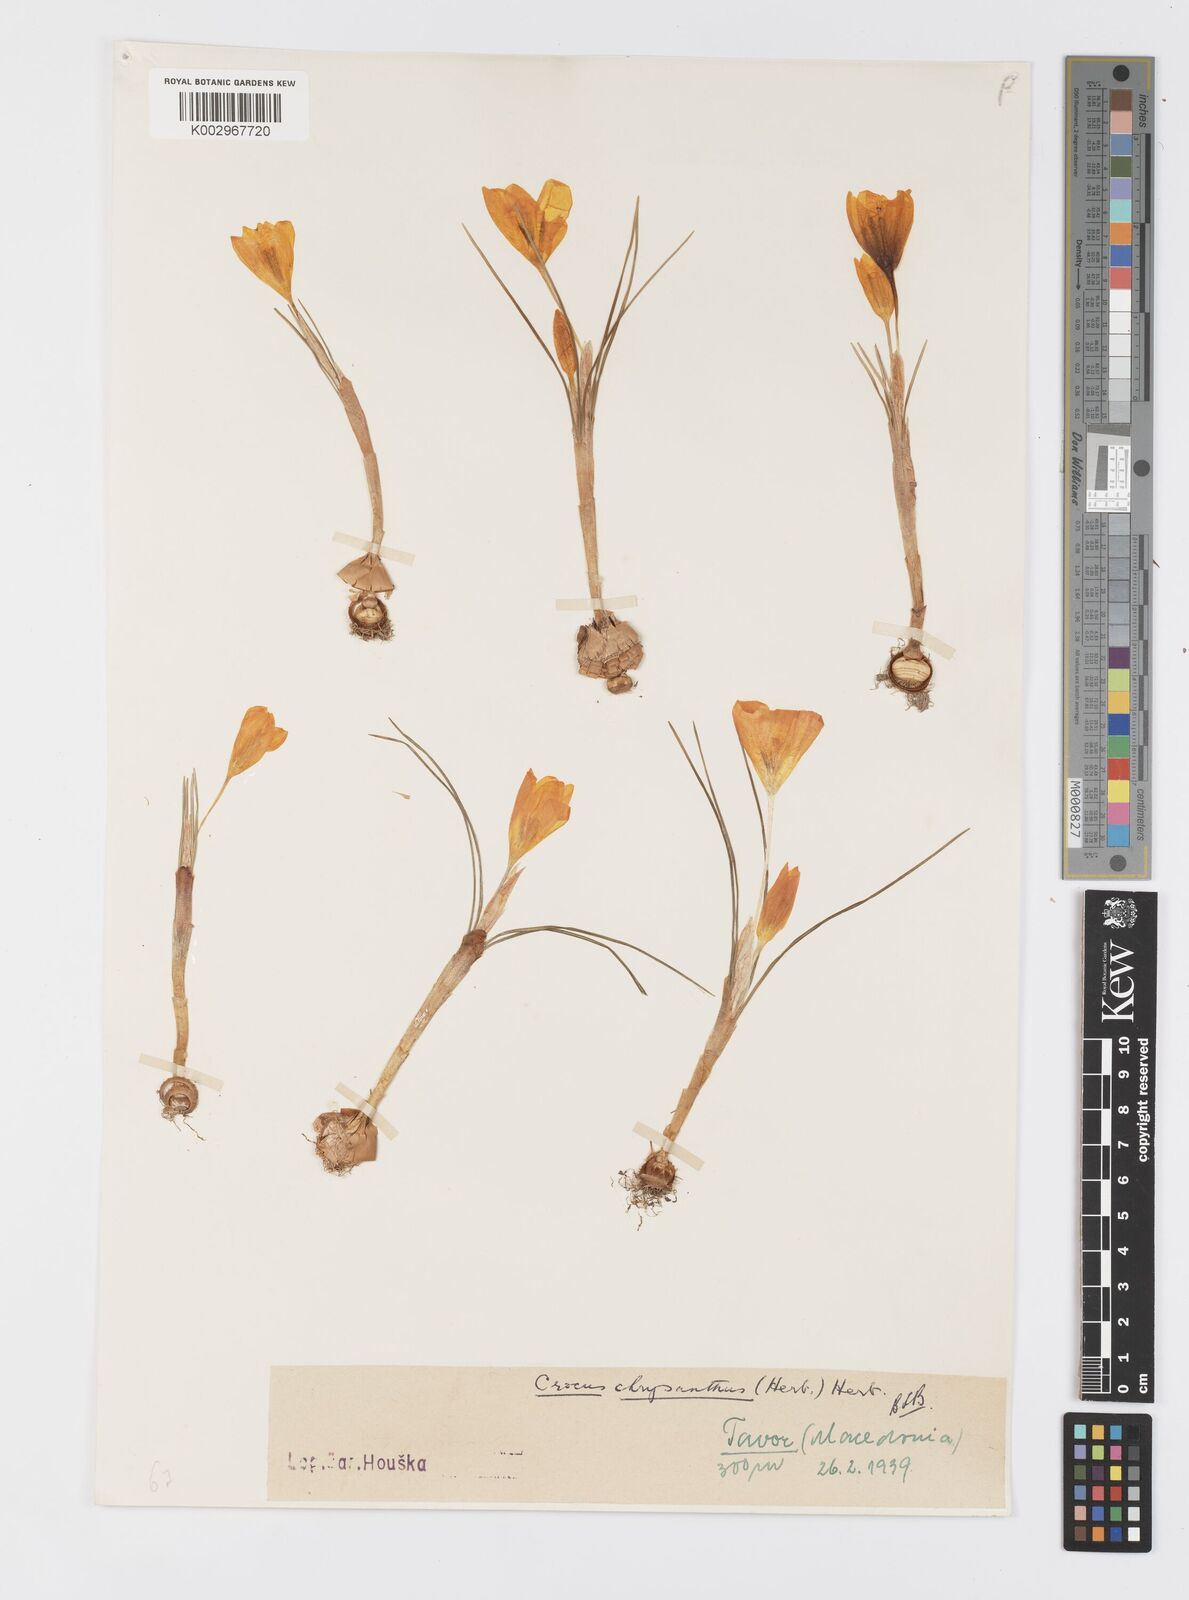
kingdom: Plantae
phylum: Tracheophyta
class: Liliopsida
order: Asparagales
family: Iridaceae
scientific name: Iridaceae
